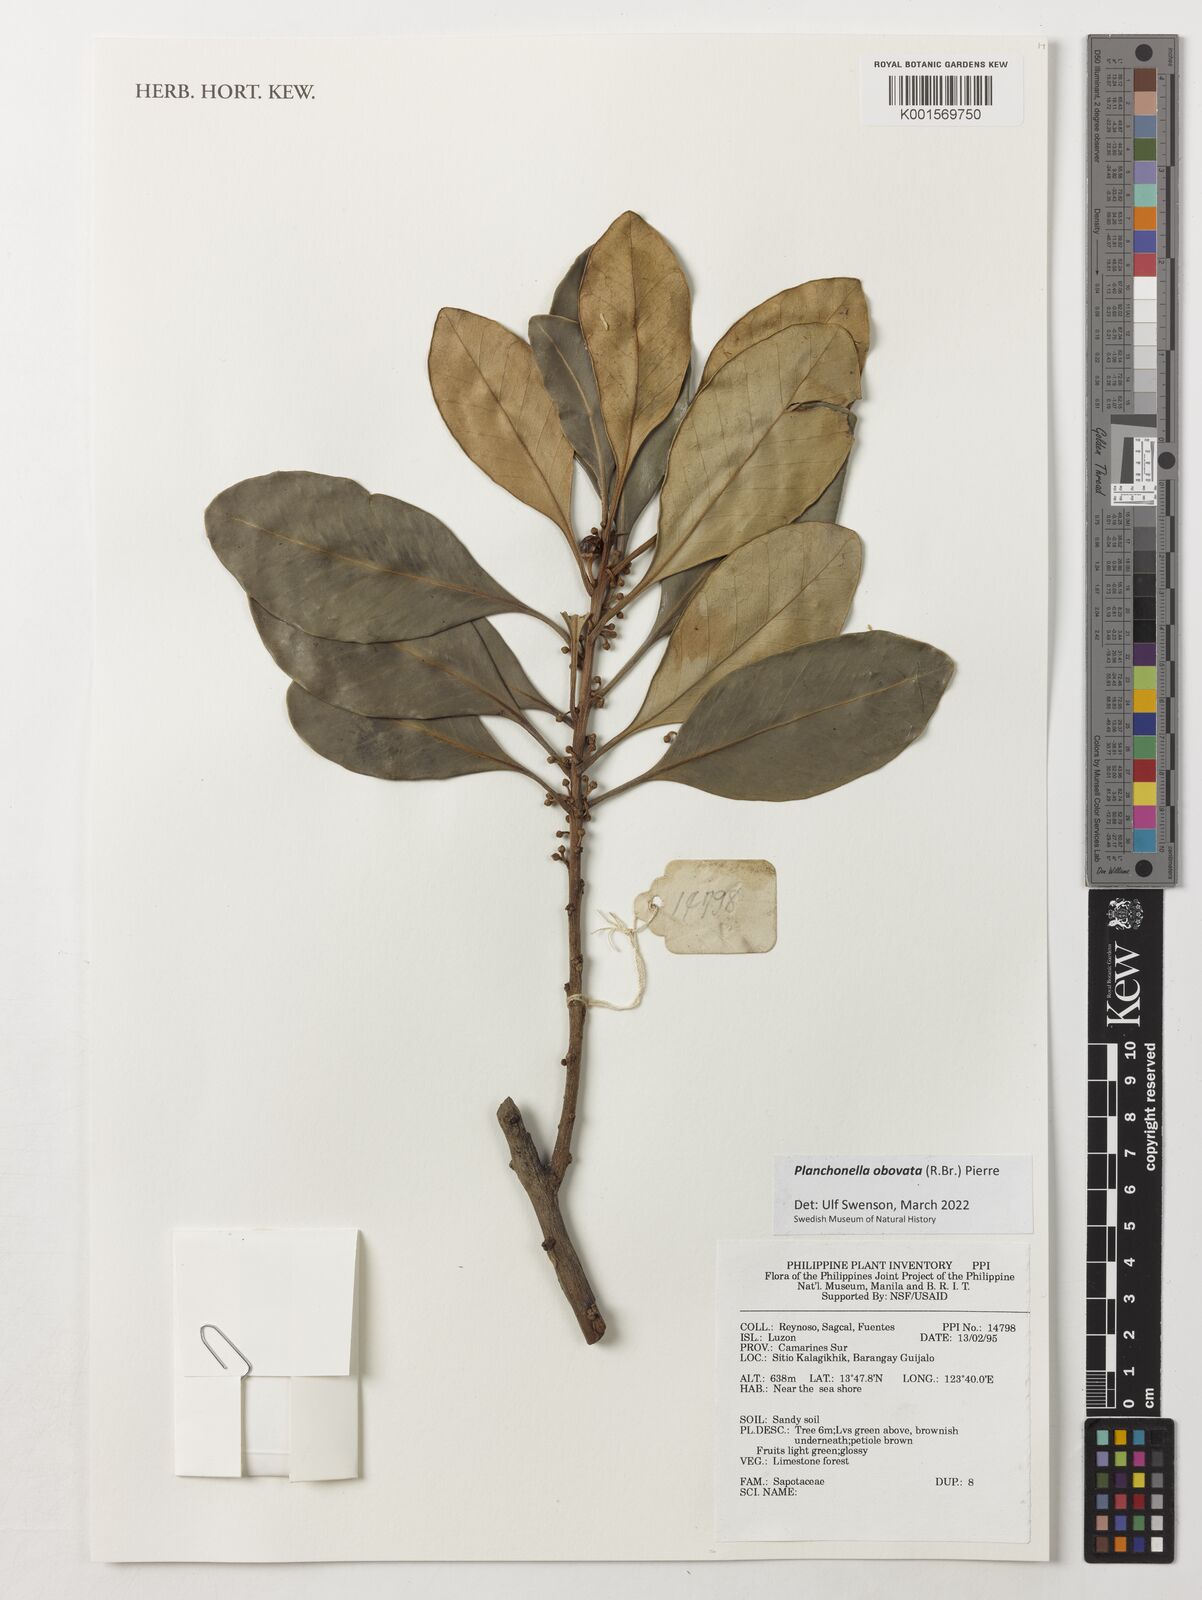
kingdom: Plantae
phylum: Tracheophyta
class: Magnoliopsida
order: Ericales
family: Sapotaceae
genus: Planchonella
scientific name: Planchonella obovata
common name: Black-ash
